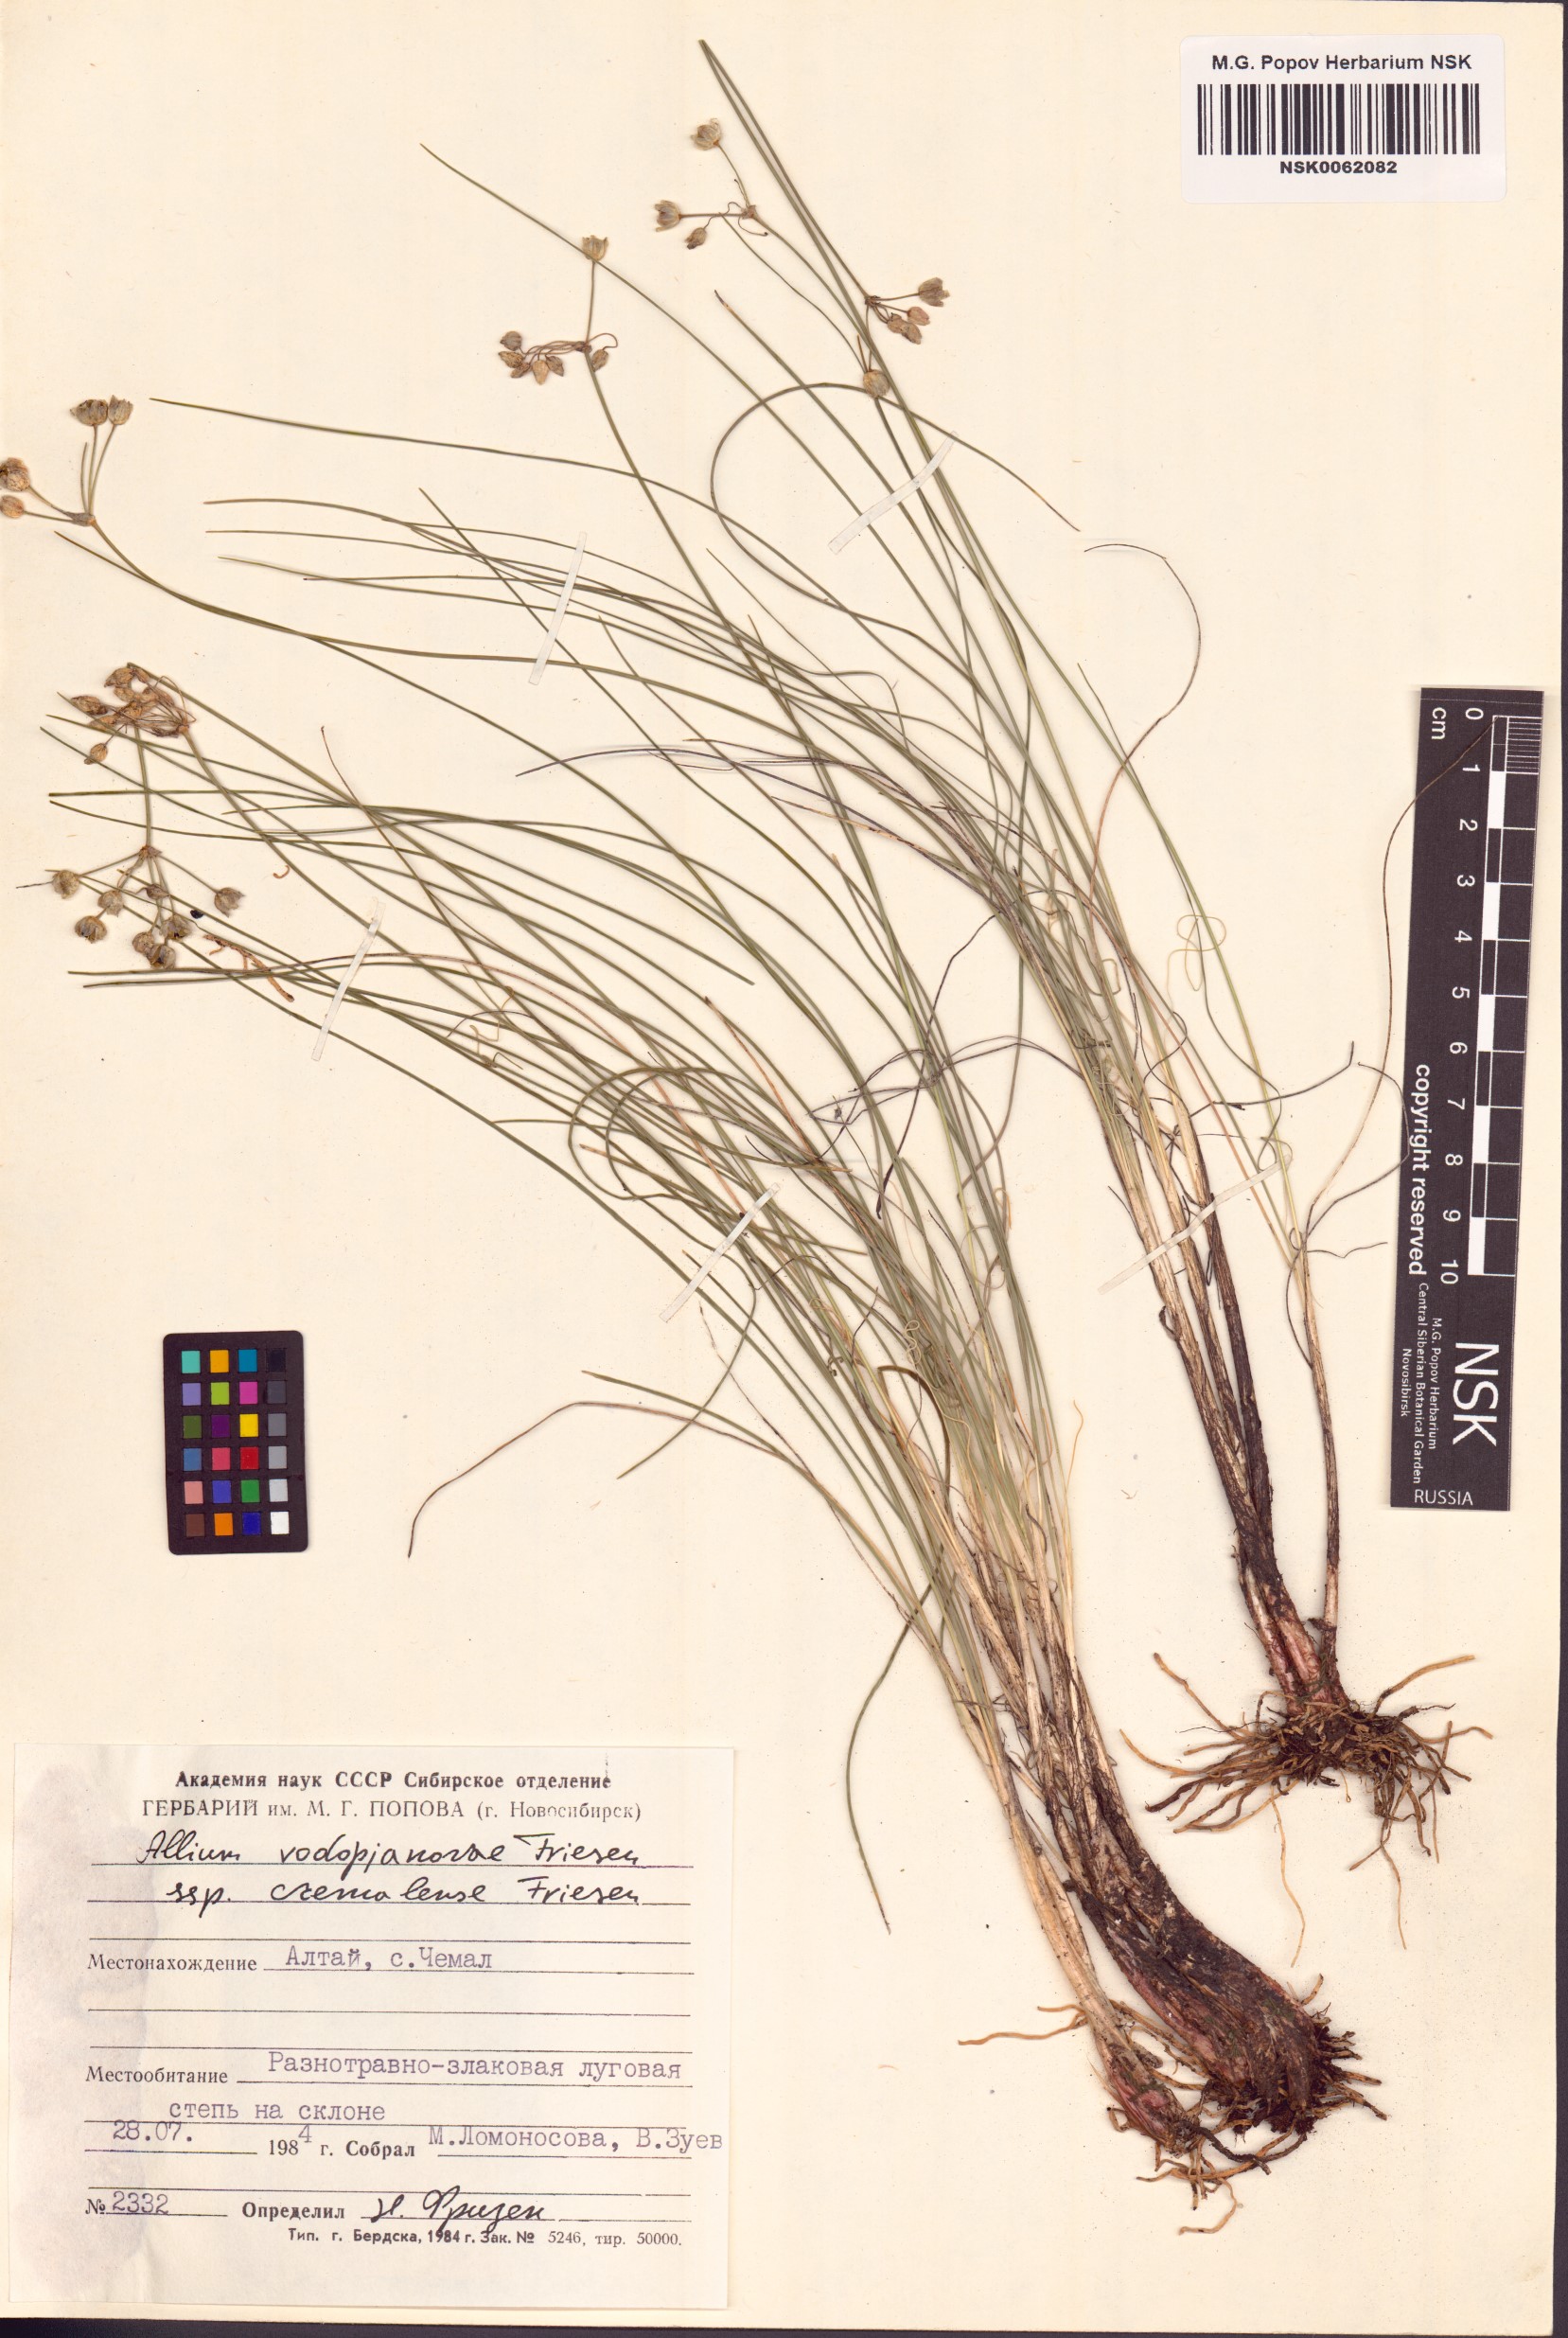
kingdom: Plantae
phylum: Tracheophyta
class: Liliopsida
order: Asparagales
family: Amaryllidaceae
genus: Allium
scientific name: Allium vodopjanovae
